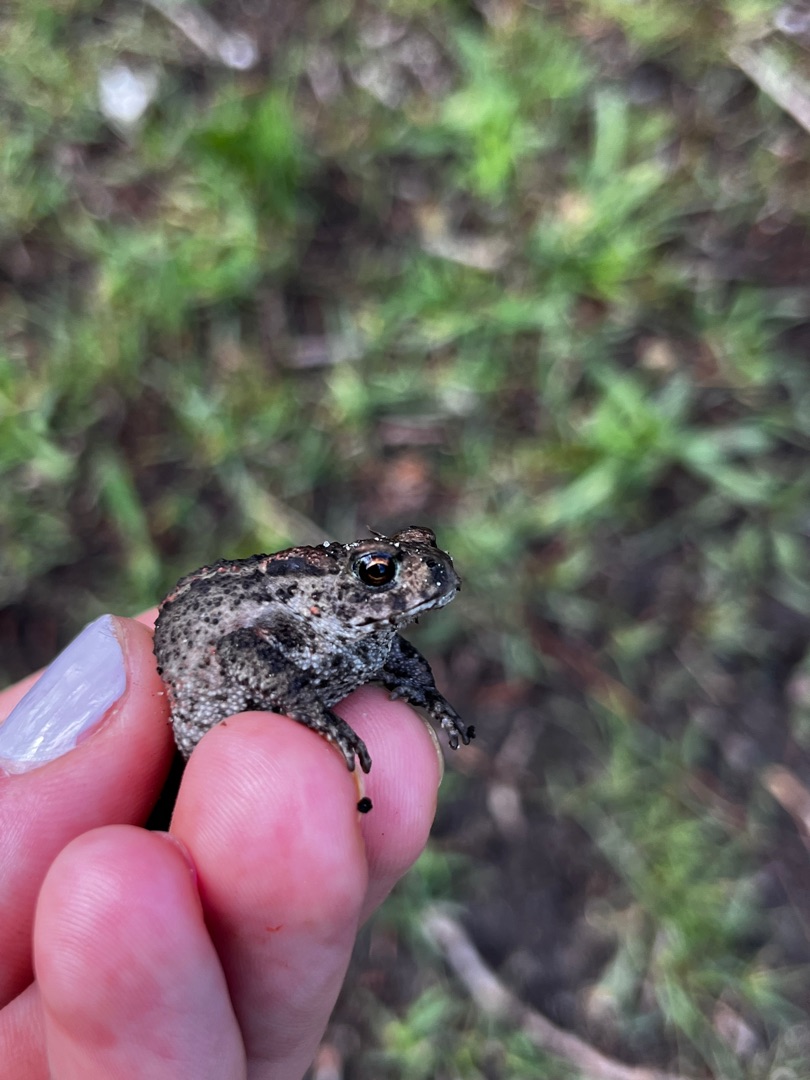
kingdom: Animalia
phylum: Chordata
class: Amphibia
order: Anura
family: Bufonidae
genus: Bufo
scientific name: Bufo bufo
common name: Skrubtudse
